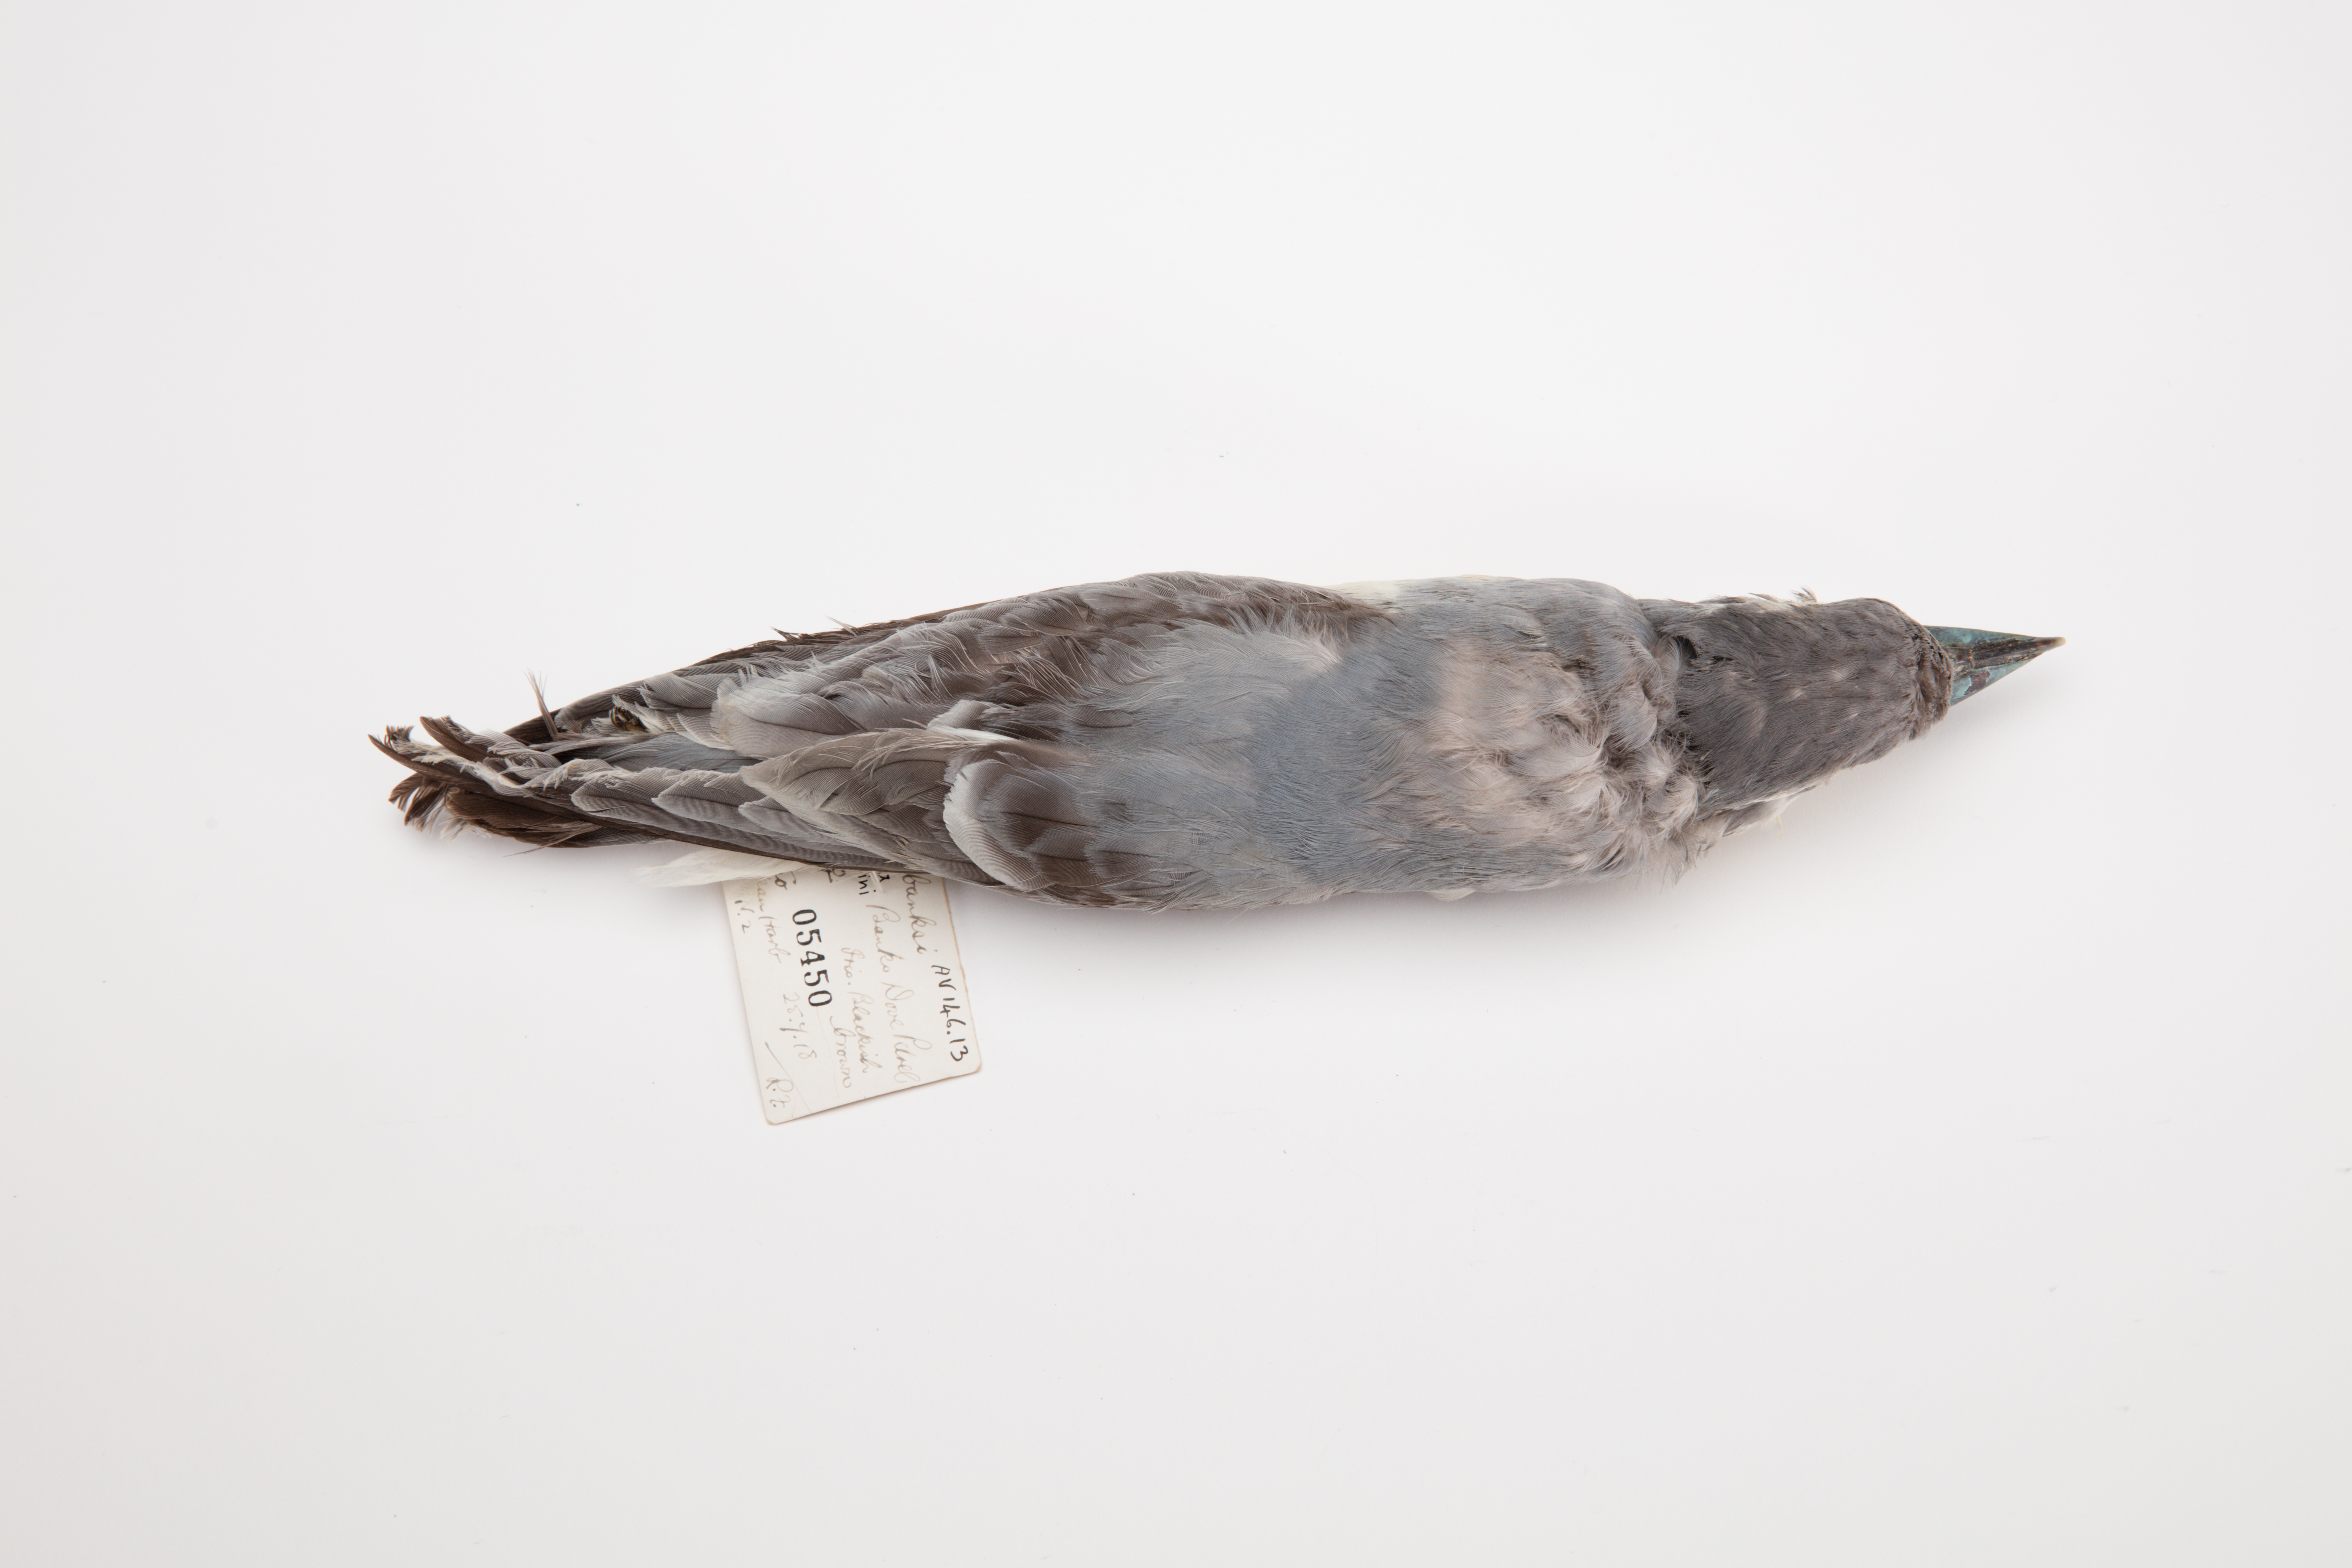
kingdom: Animalia
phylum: Chordata
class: Aves
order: Procellariiformes
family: Procellariidae
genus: Pachyptila
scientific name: Pachyptila salvini
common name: Salvin's prion
